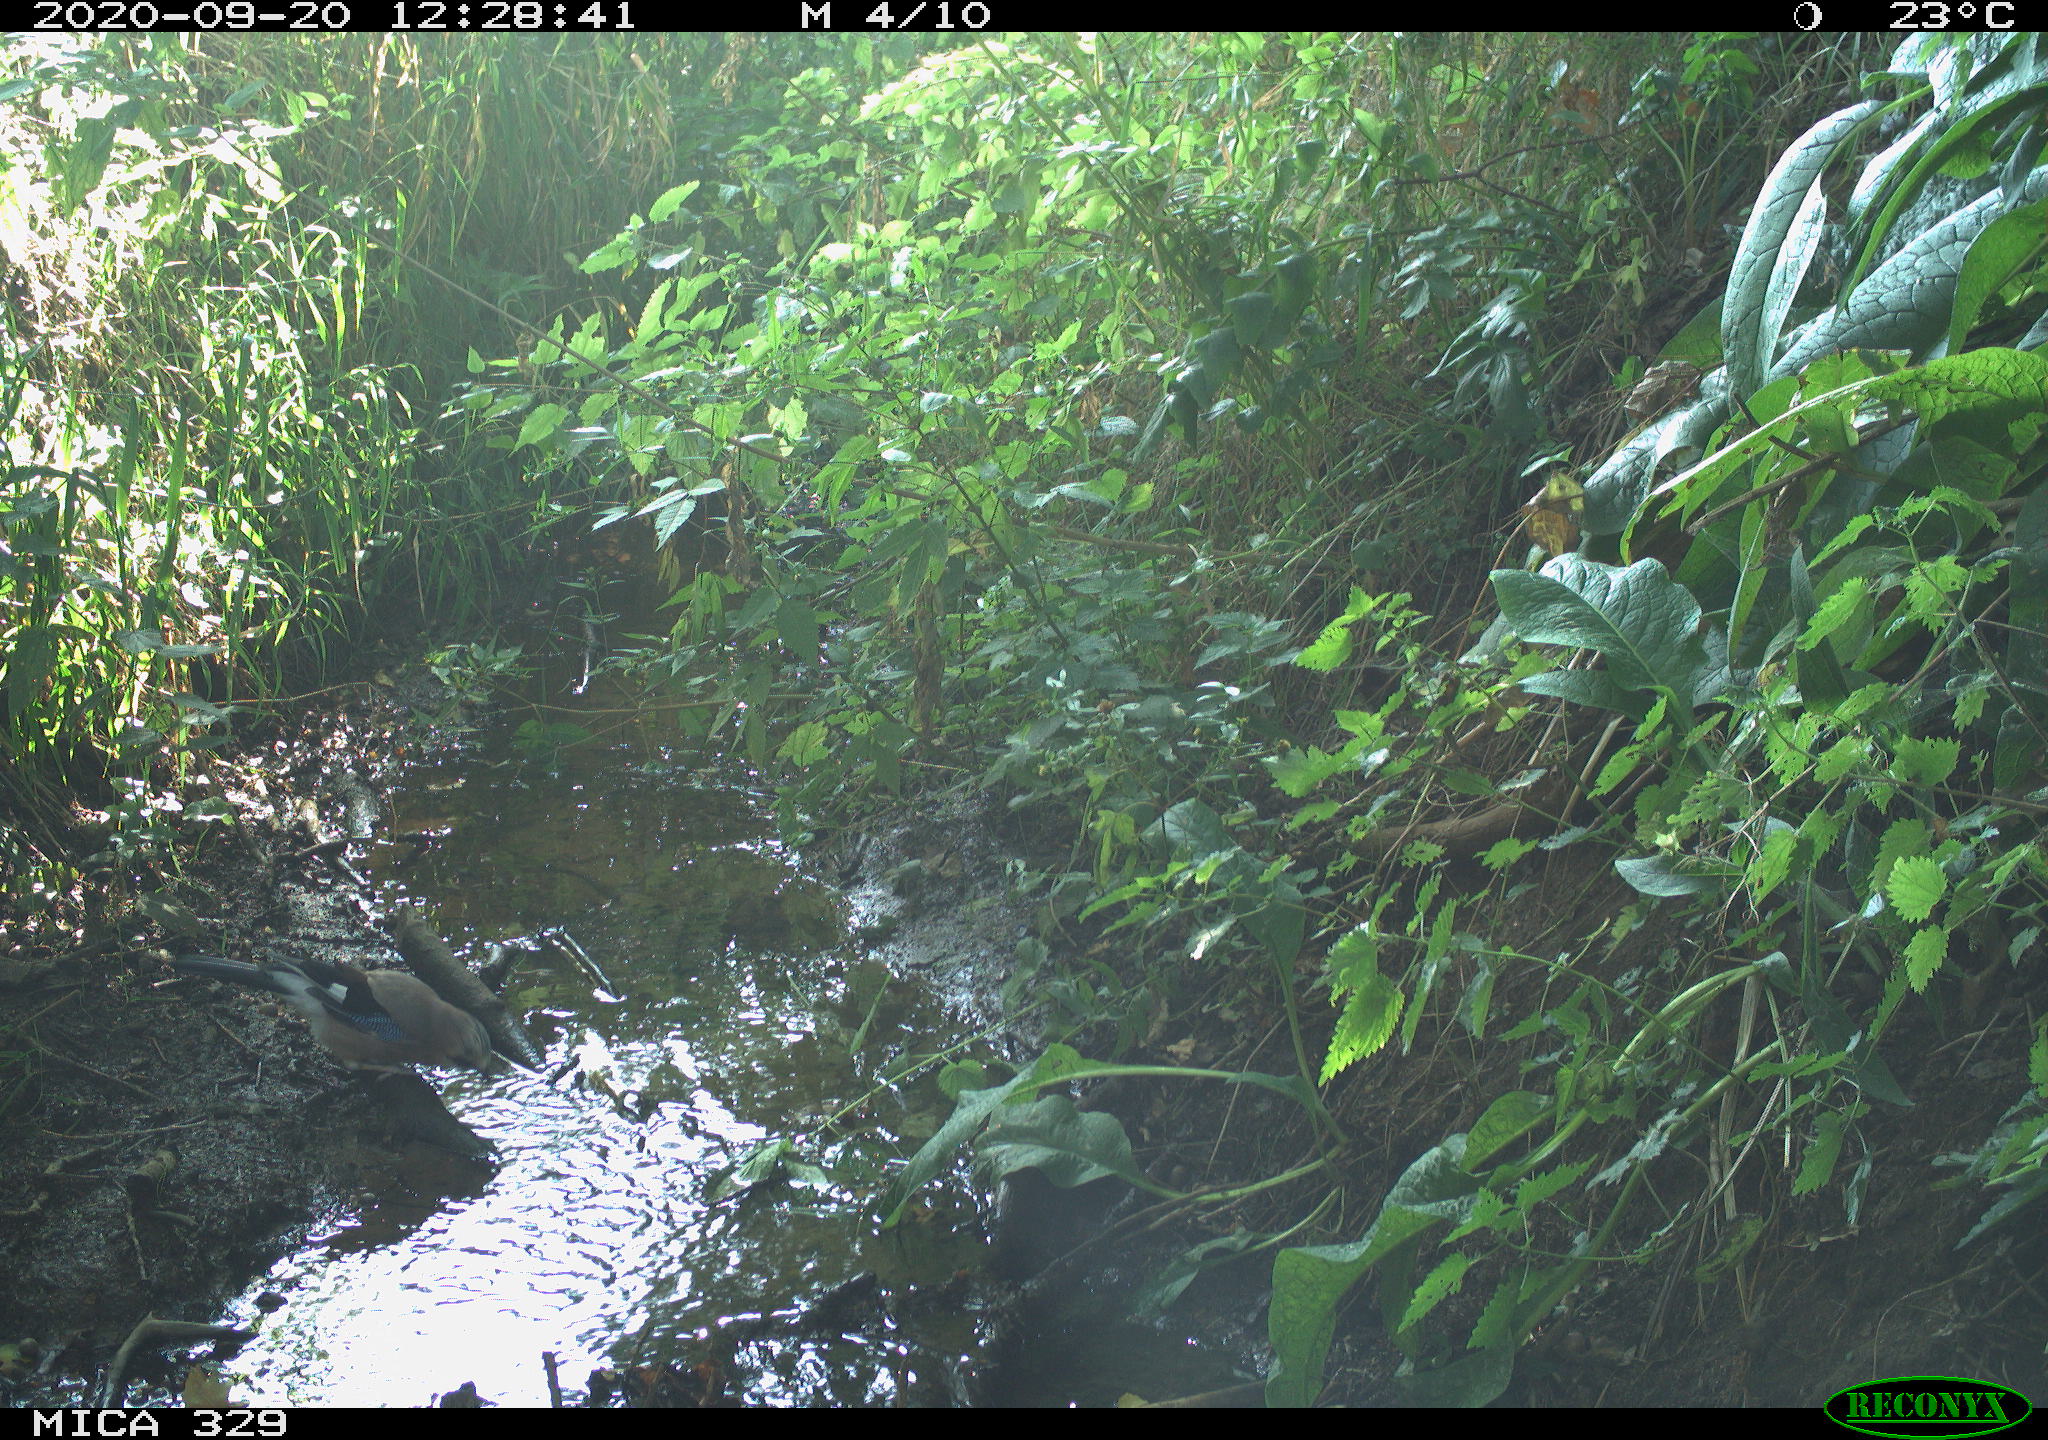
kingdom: Animalia
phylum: Chordata
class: Aves
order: Passeriformes
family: Corvidae
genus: Garrulus
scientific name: Garrulus glandarius
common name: Eurasian jay
